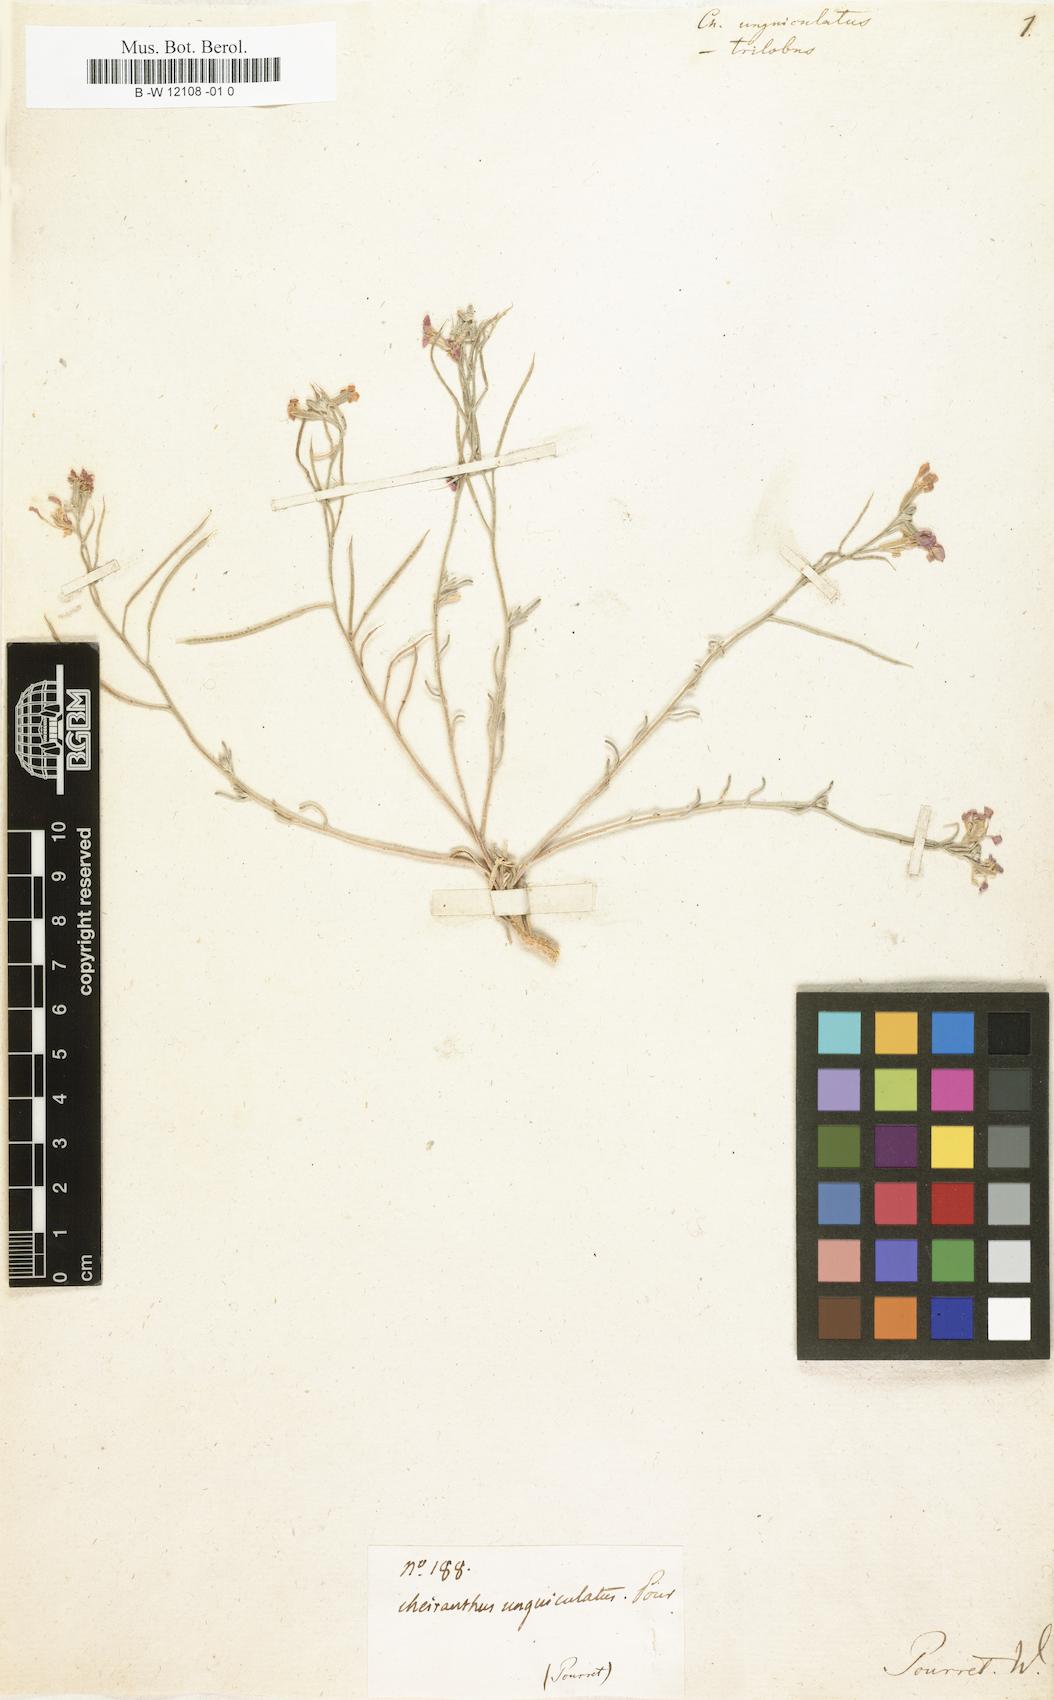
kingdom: Plantae
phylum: Tracheophyta
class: Magnoliopsida
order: Brassicales
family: Brassicaceae
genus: Erysimum
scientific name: Erysimum
